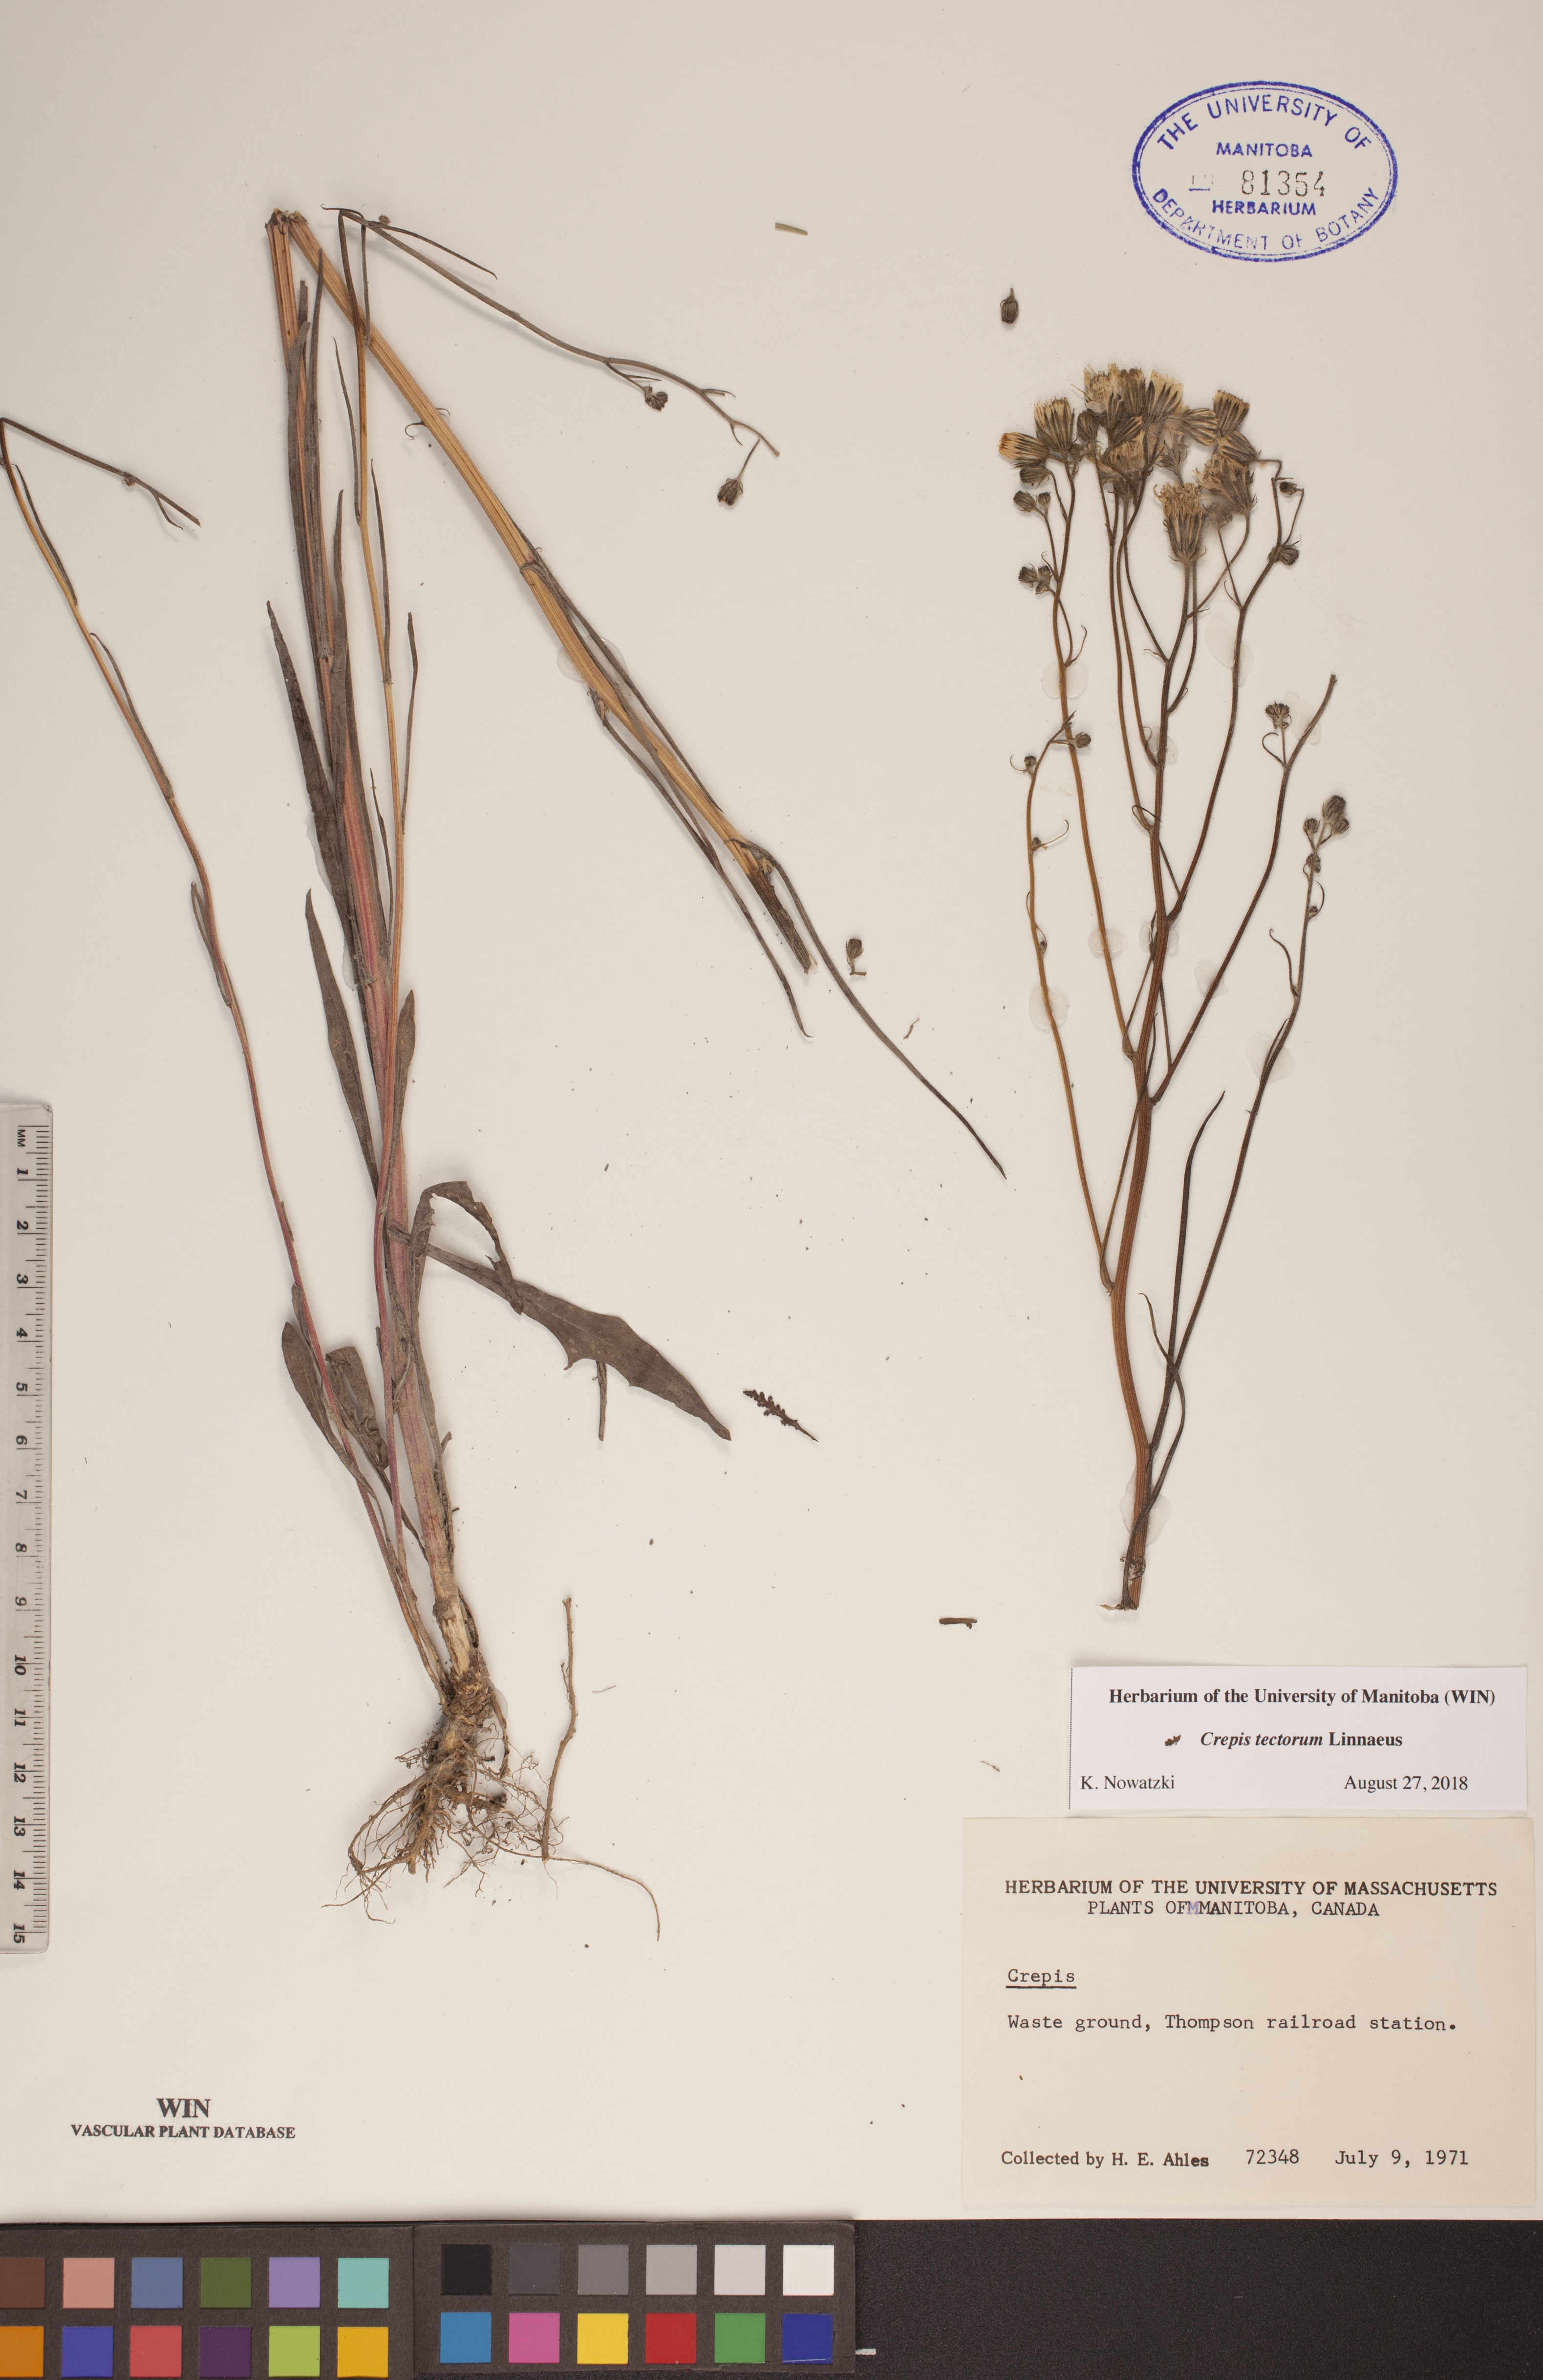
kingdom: Plantae
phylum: Tracheophyta
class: Magnoliopsida
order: Asterales
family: Asteraceae
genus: Crepis
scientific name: Crepis tectorum
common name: Narrow-leaved hawk's-beard
